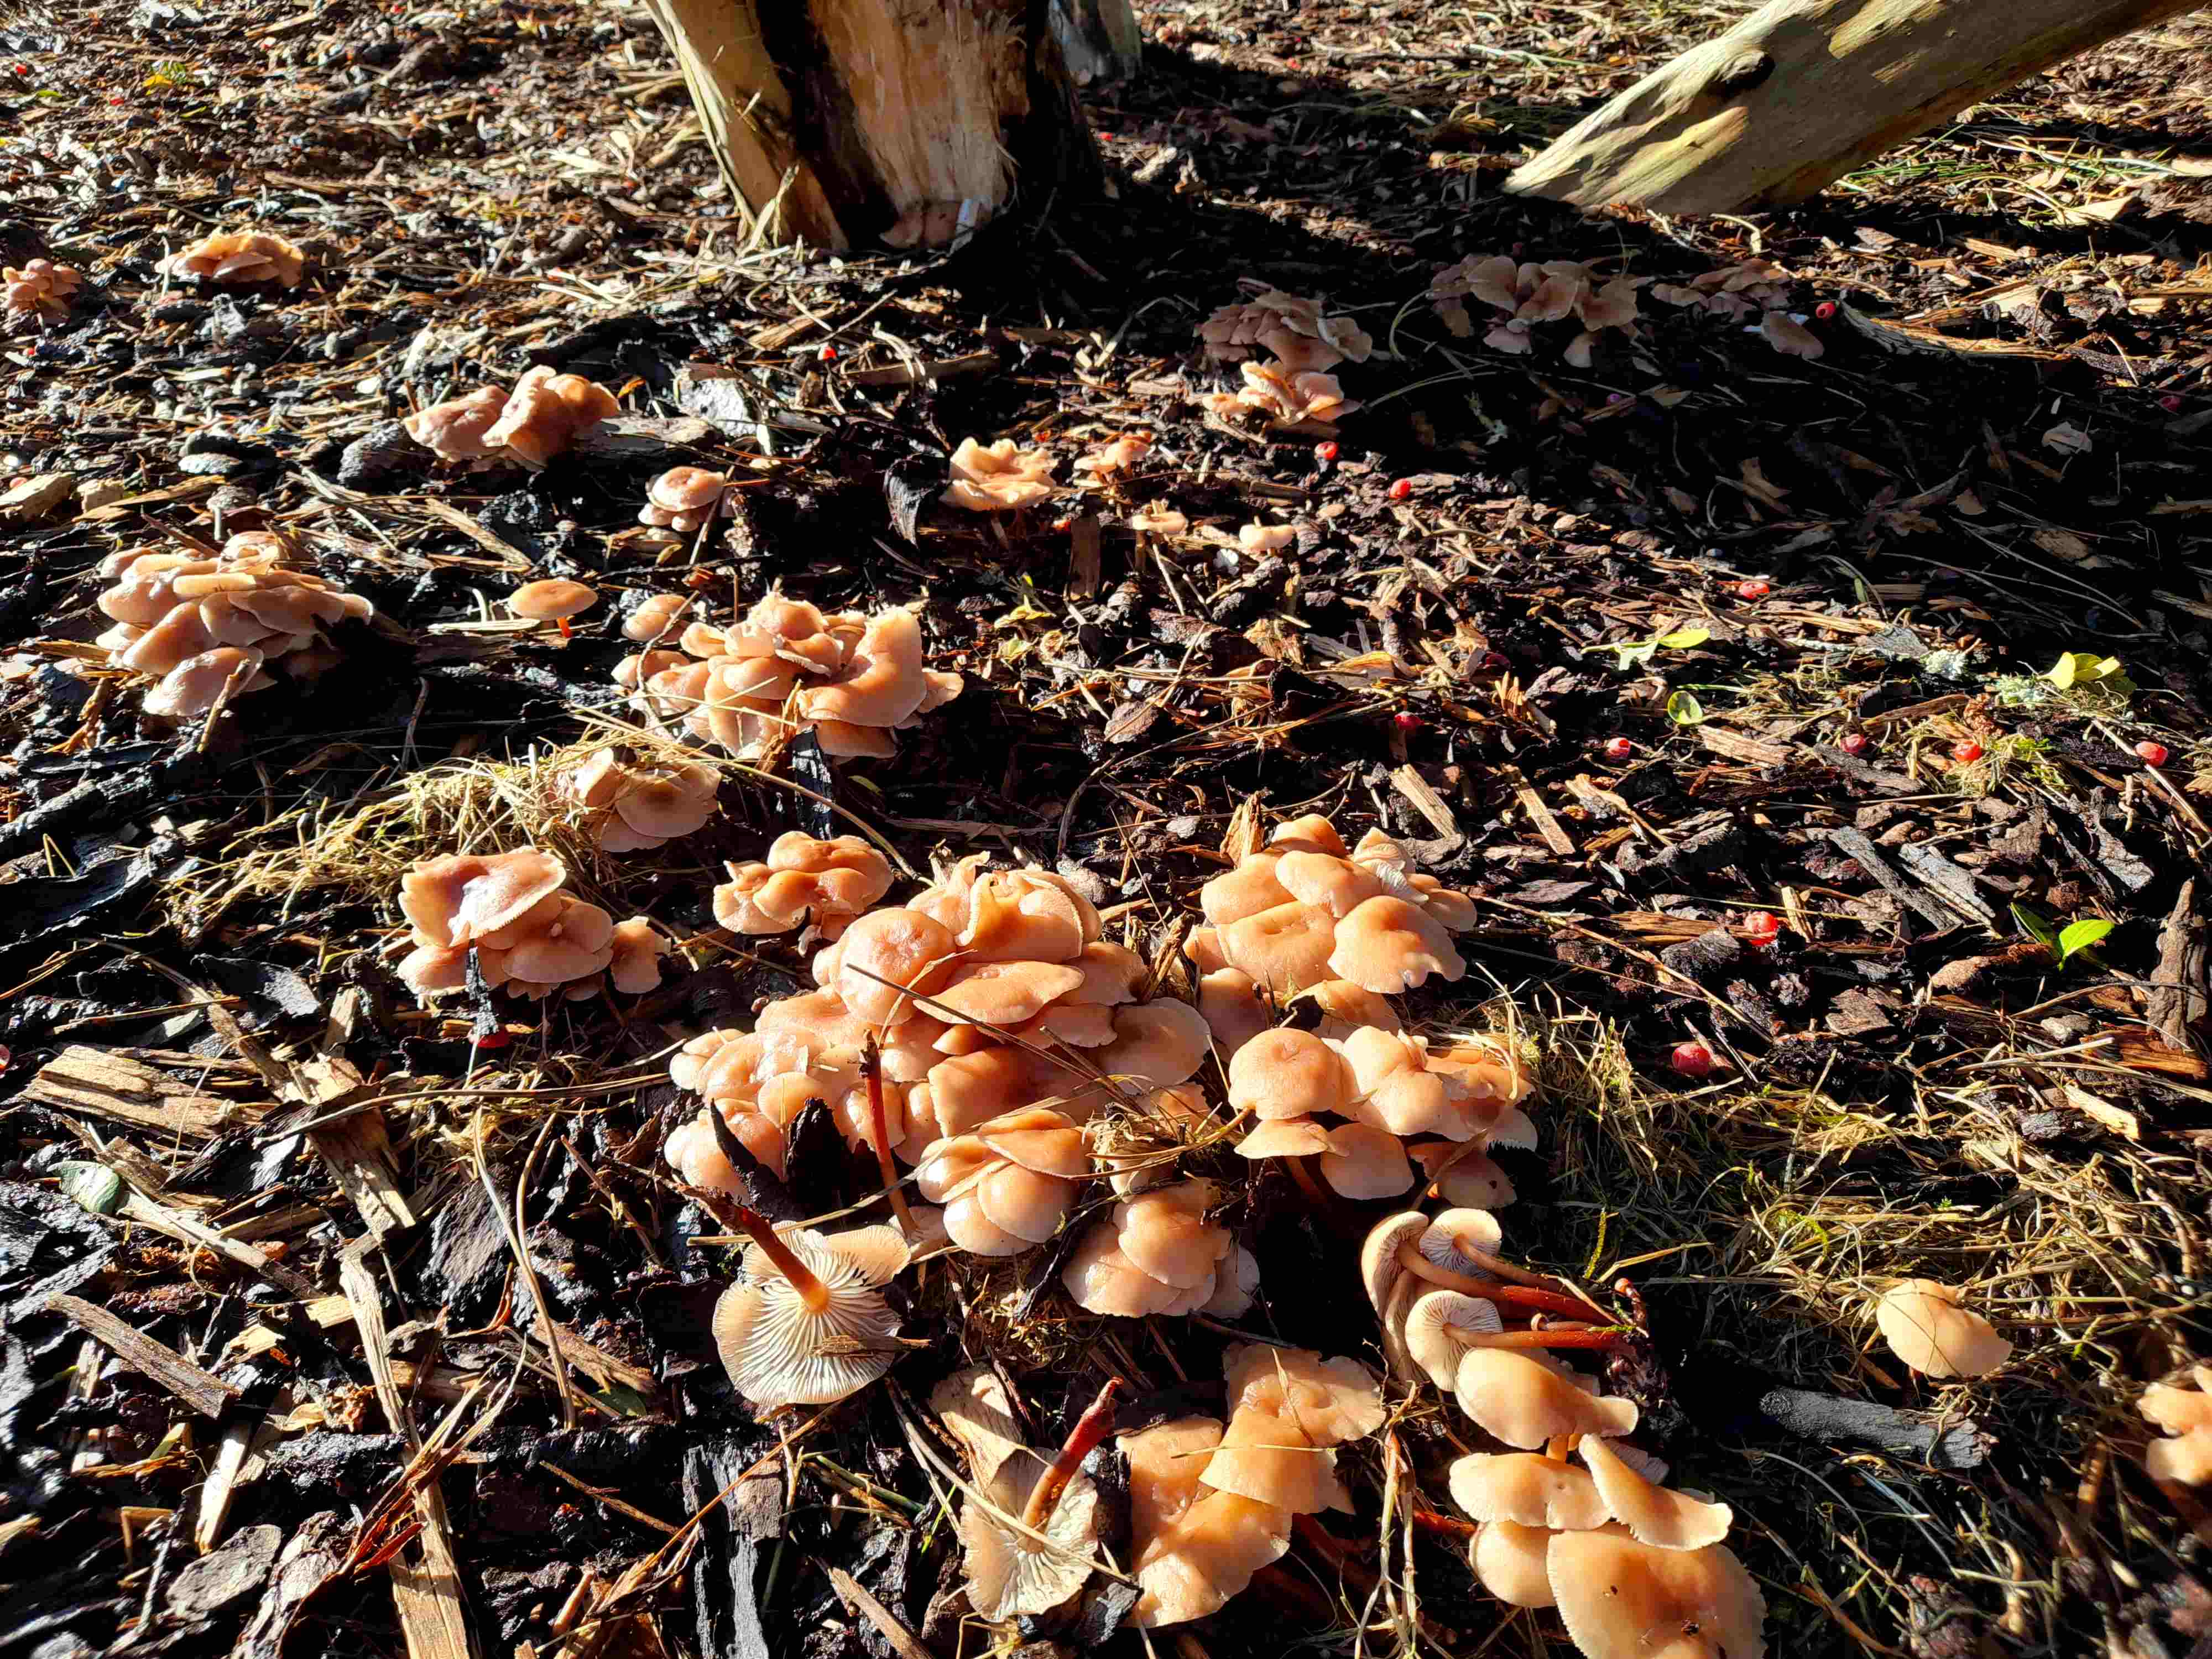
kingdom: Fungi
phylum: Basidiomycota
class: Agaricomycetes
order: Agaricales
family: Omphalotaceae
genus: Gymnopus
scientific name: Gymnopus dryophilus
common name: løv-fladhat
